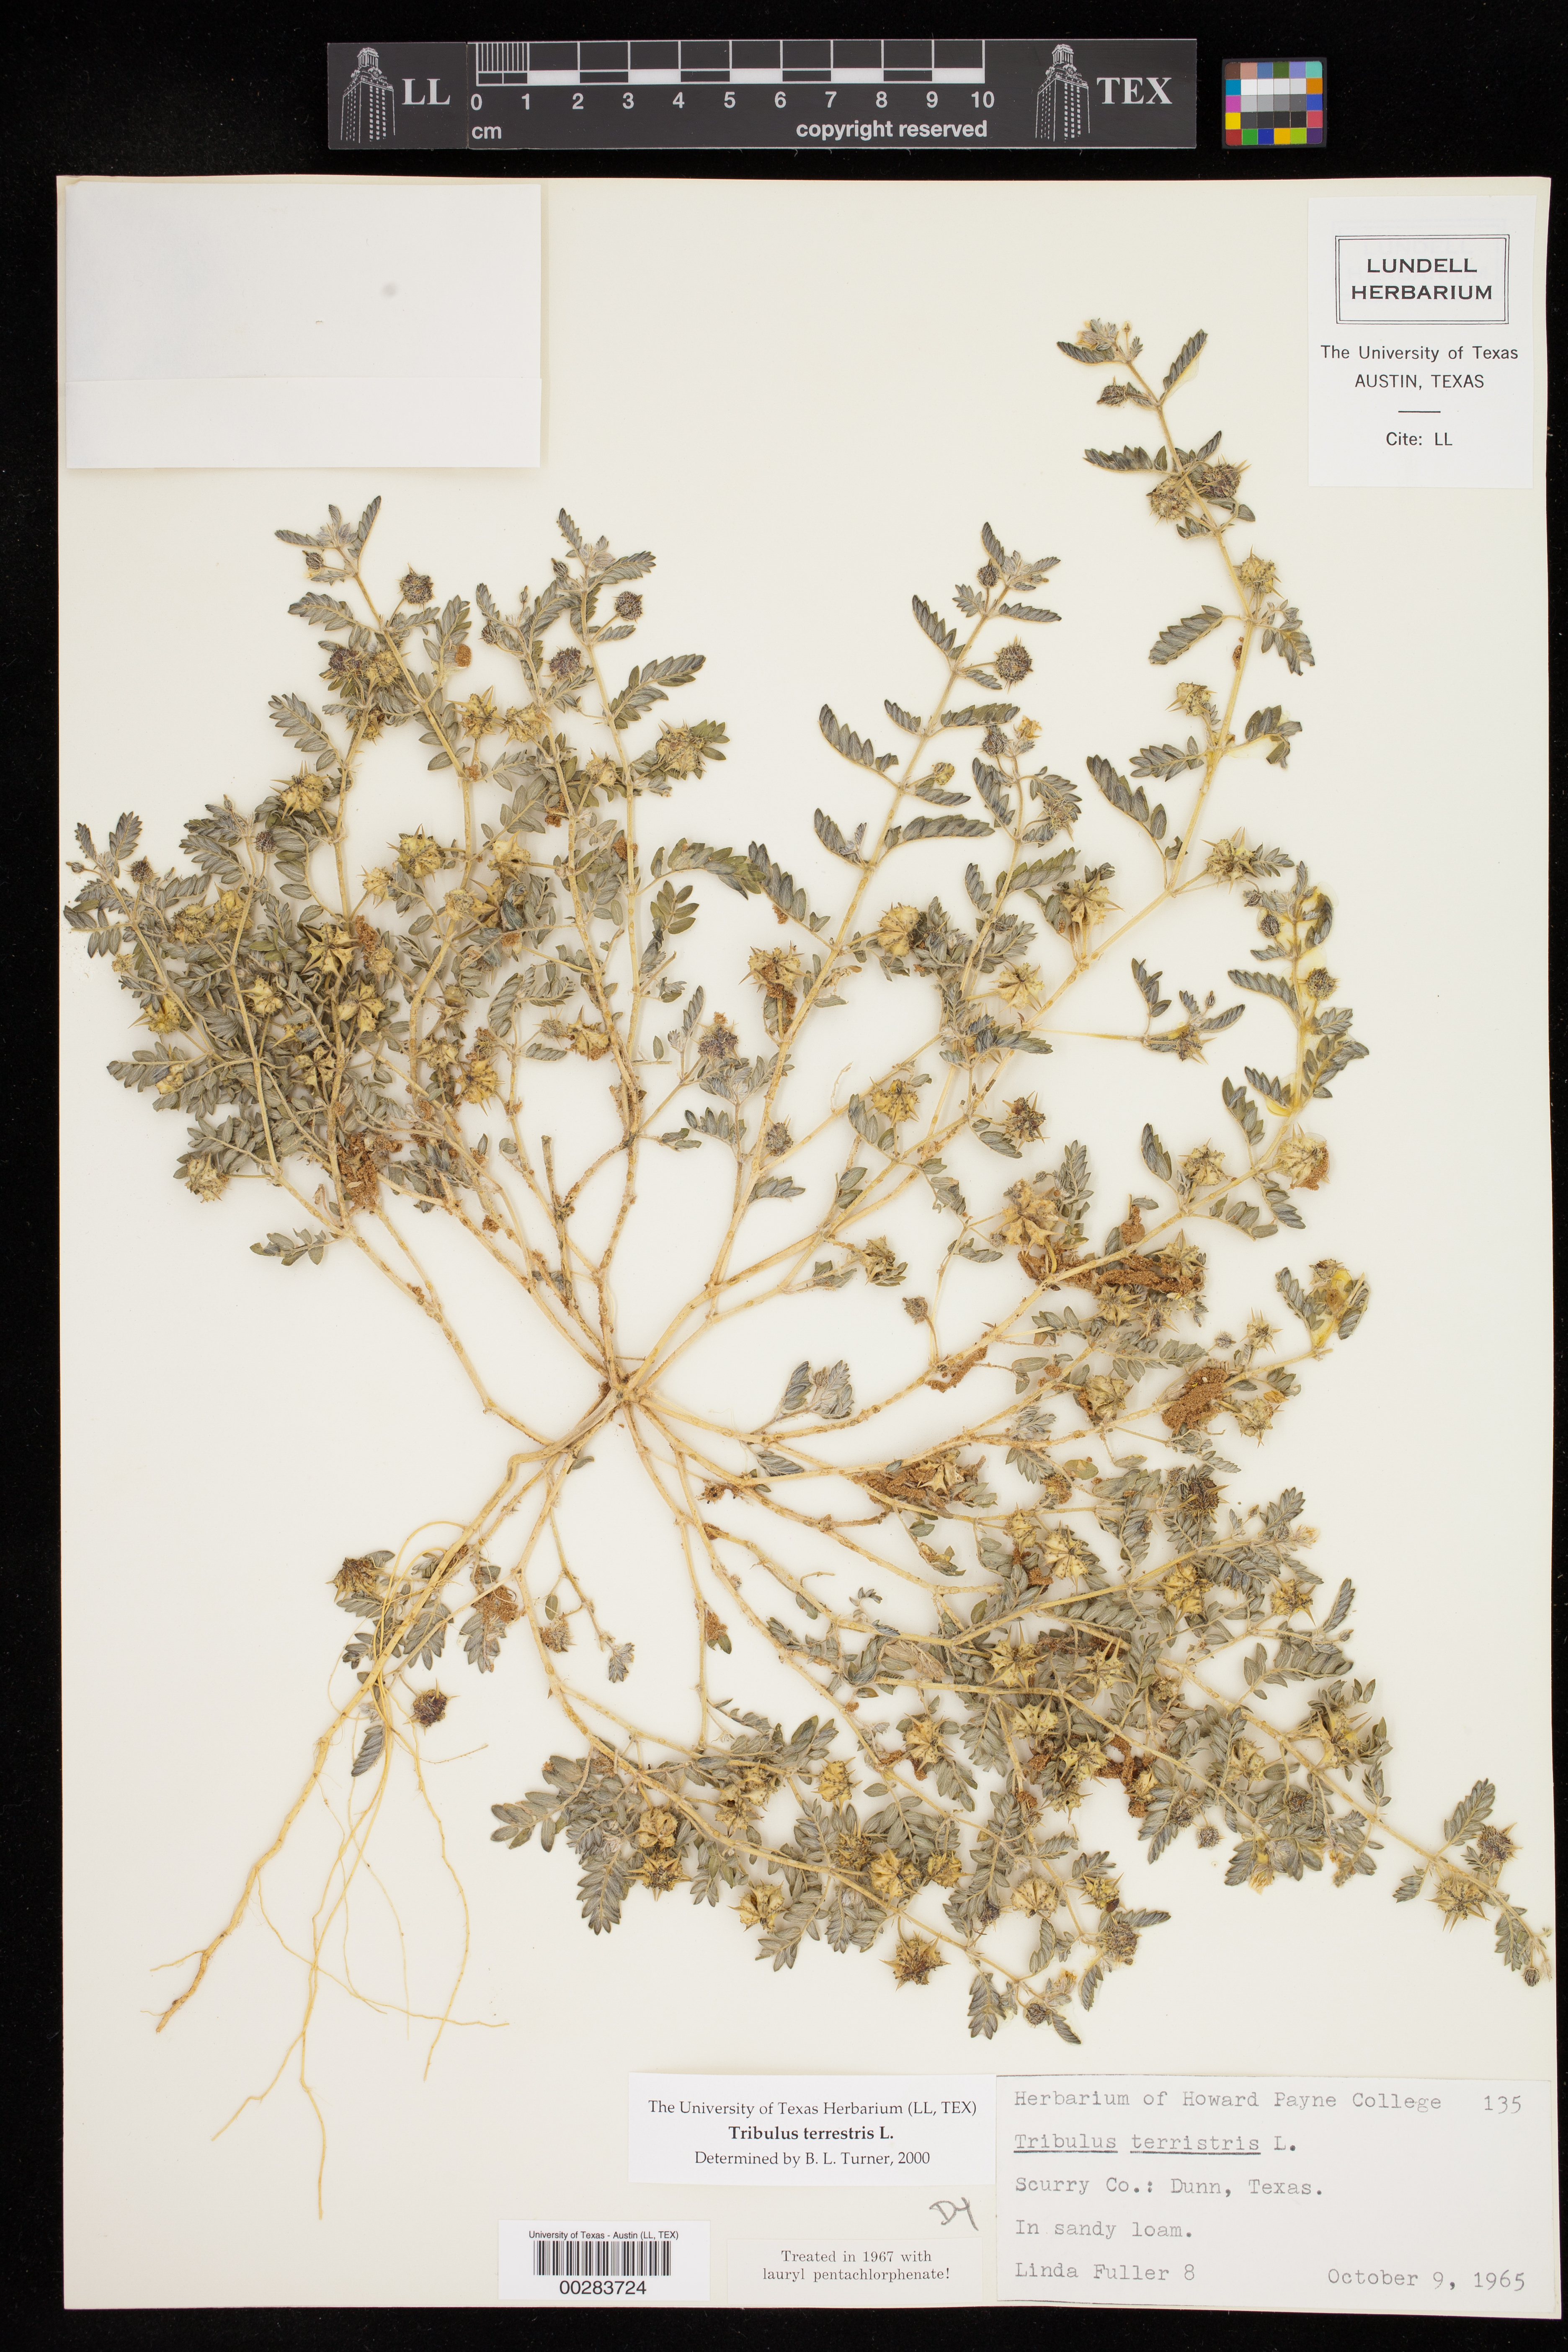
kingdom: Plantae
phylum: Tracheophyta
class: Magnoliopsida
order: Zygophyllales
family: Zygophyllaceae
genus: Tribulus
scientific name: Tribulus terrestris
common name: Puncturevine
